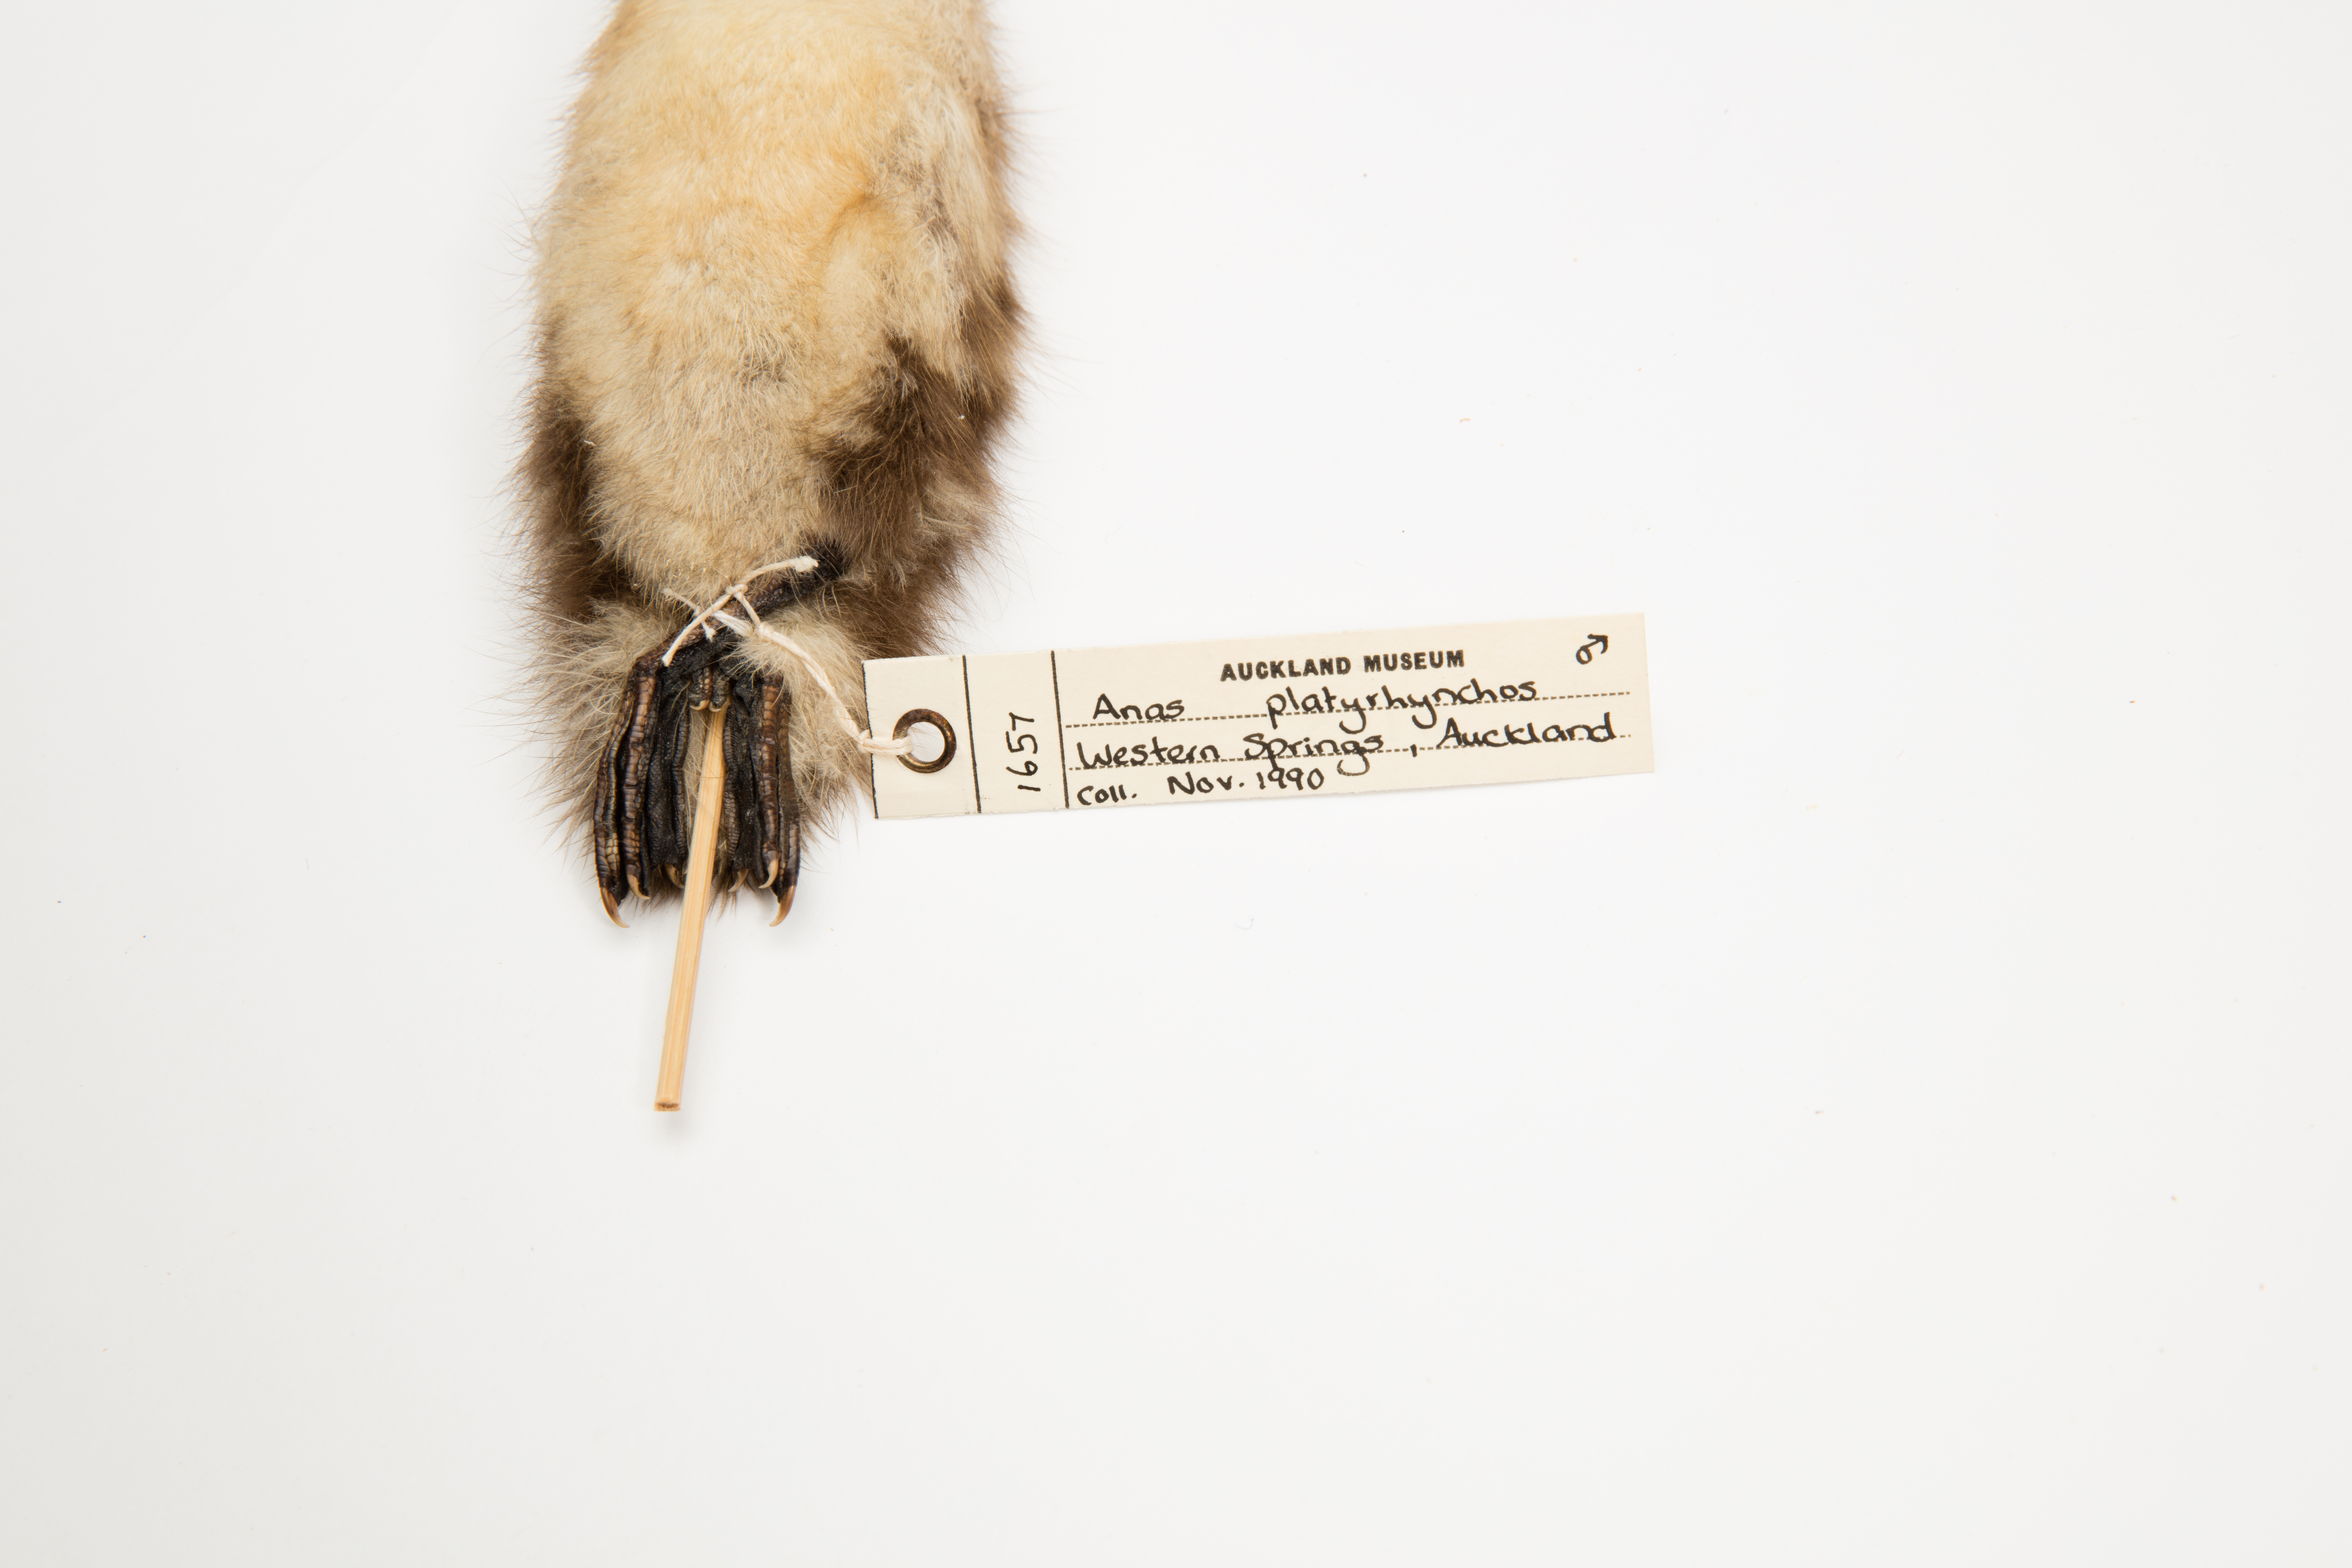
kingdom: Animalia
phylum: Chordata
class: Aves
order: Anseriformes
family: Anatidae
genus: Anas
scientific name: Anas platyrhynchos
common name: Mallard
